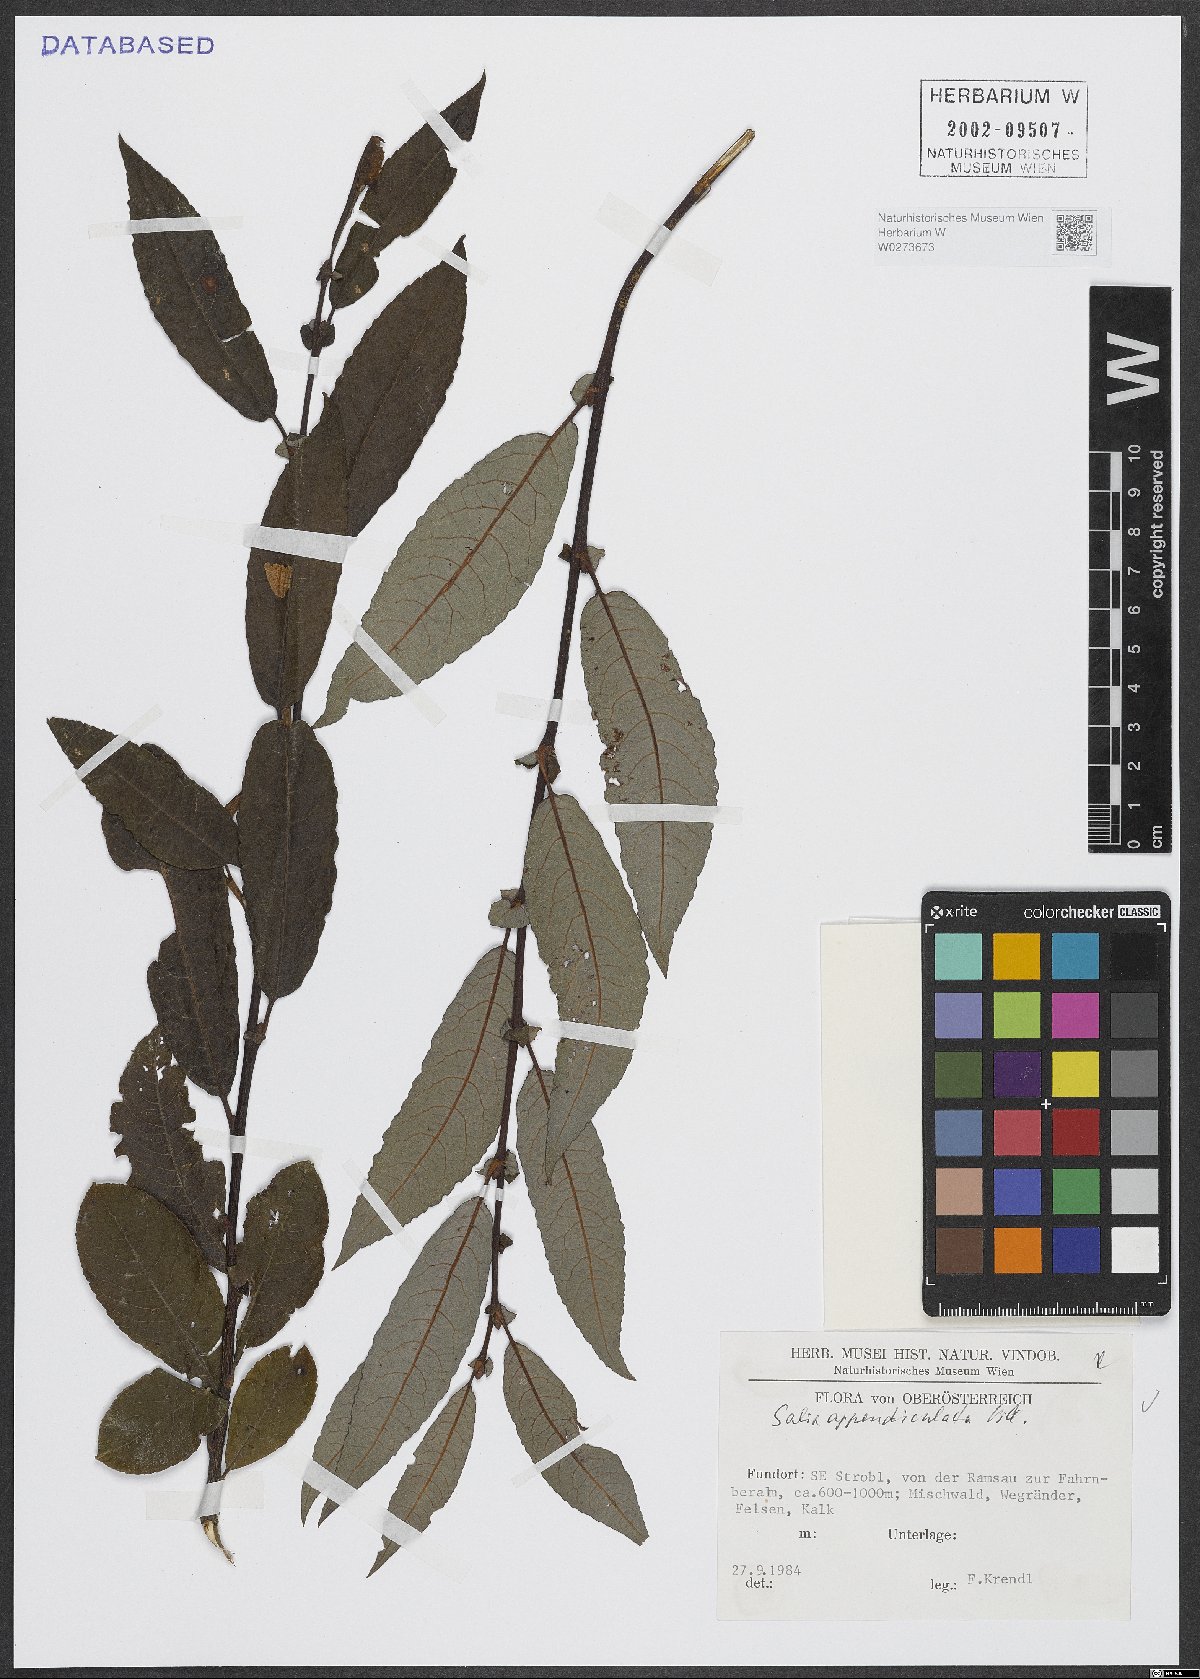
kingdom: Plantae
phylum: Tracheophyta
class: Magnoliopsida
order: Malpighiales
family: Salicaceae
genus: Salix
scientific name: Salix appendiculata
